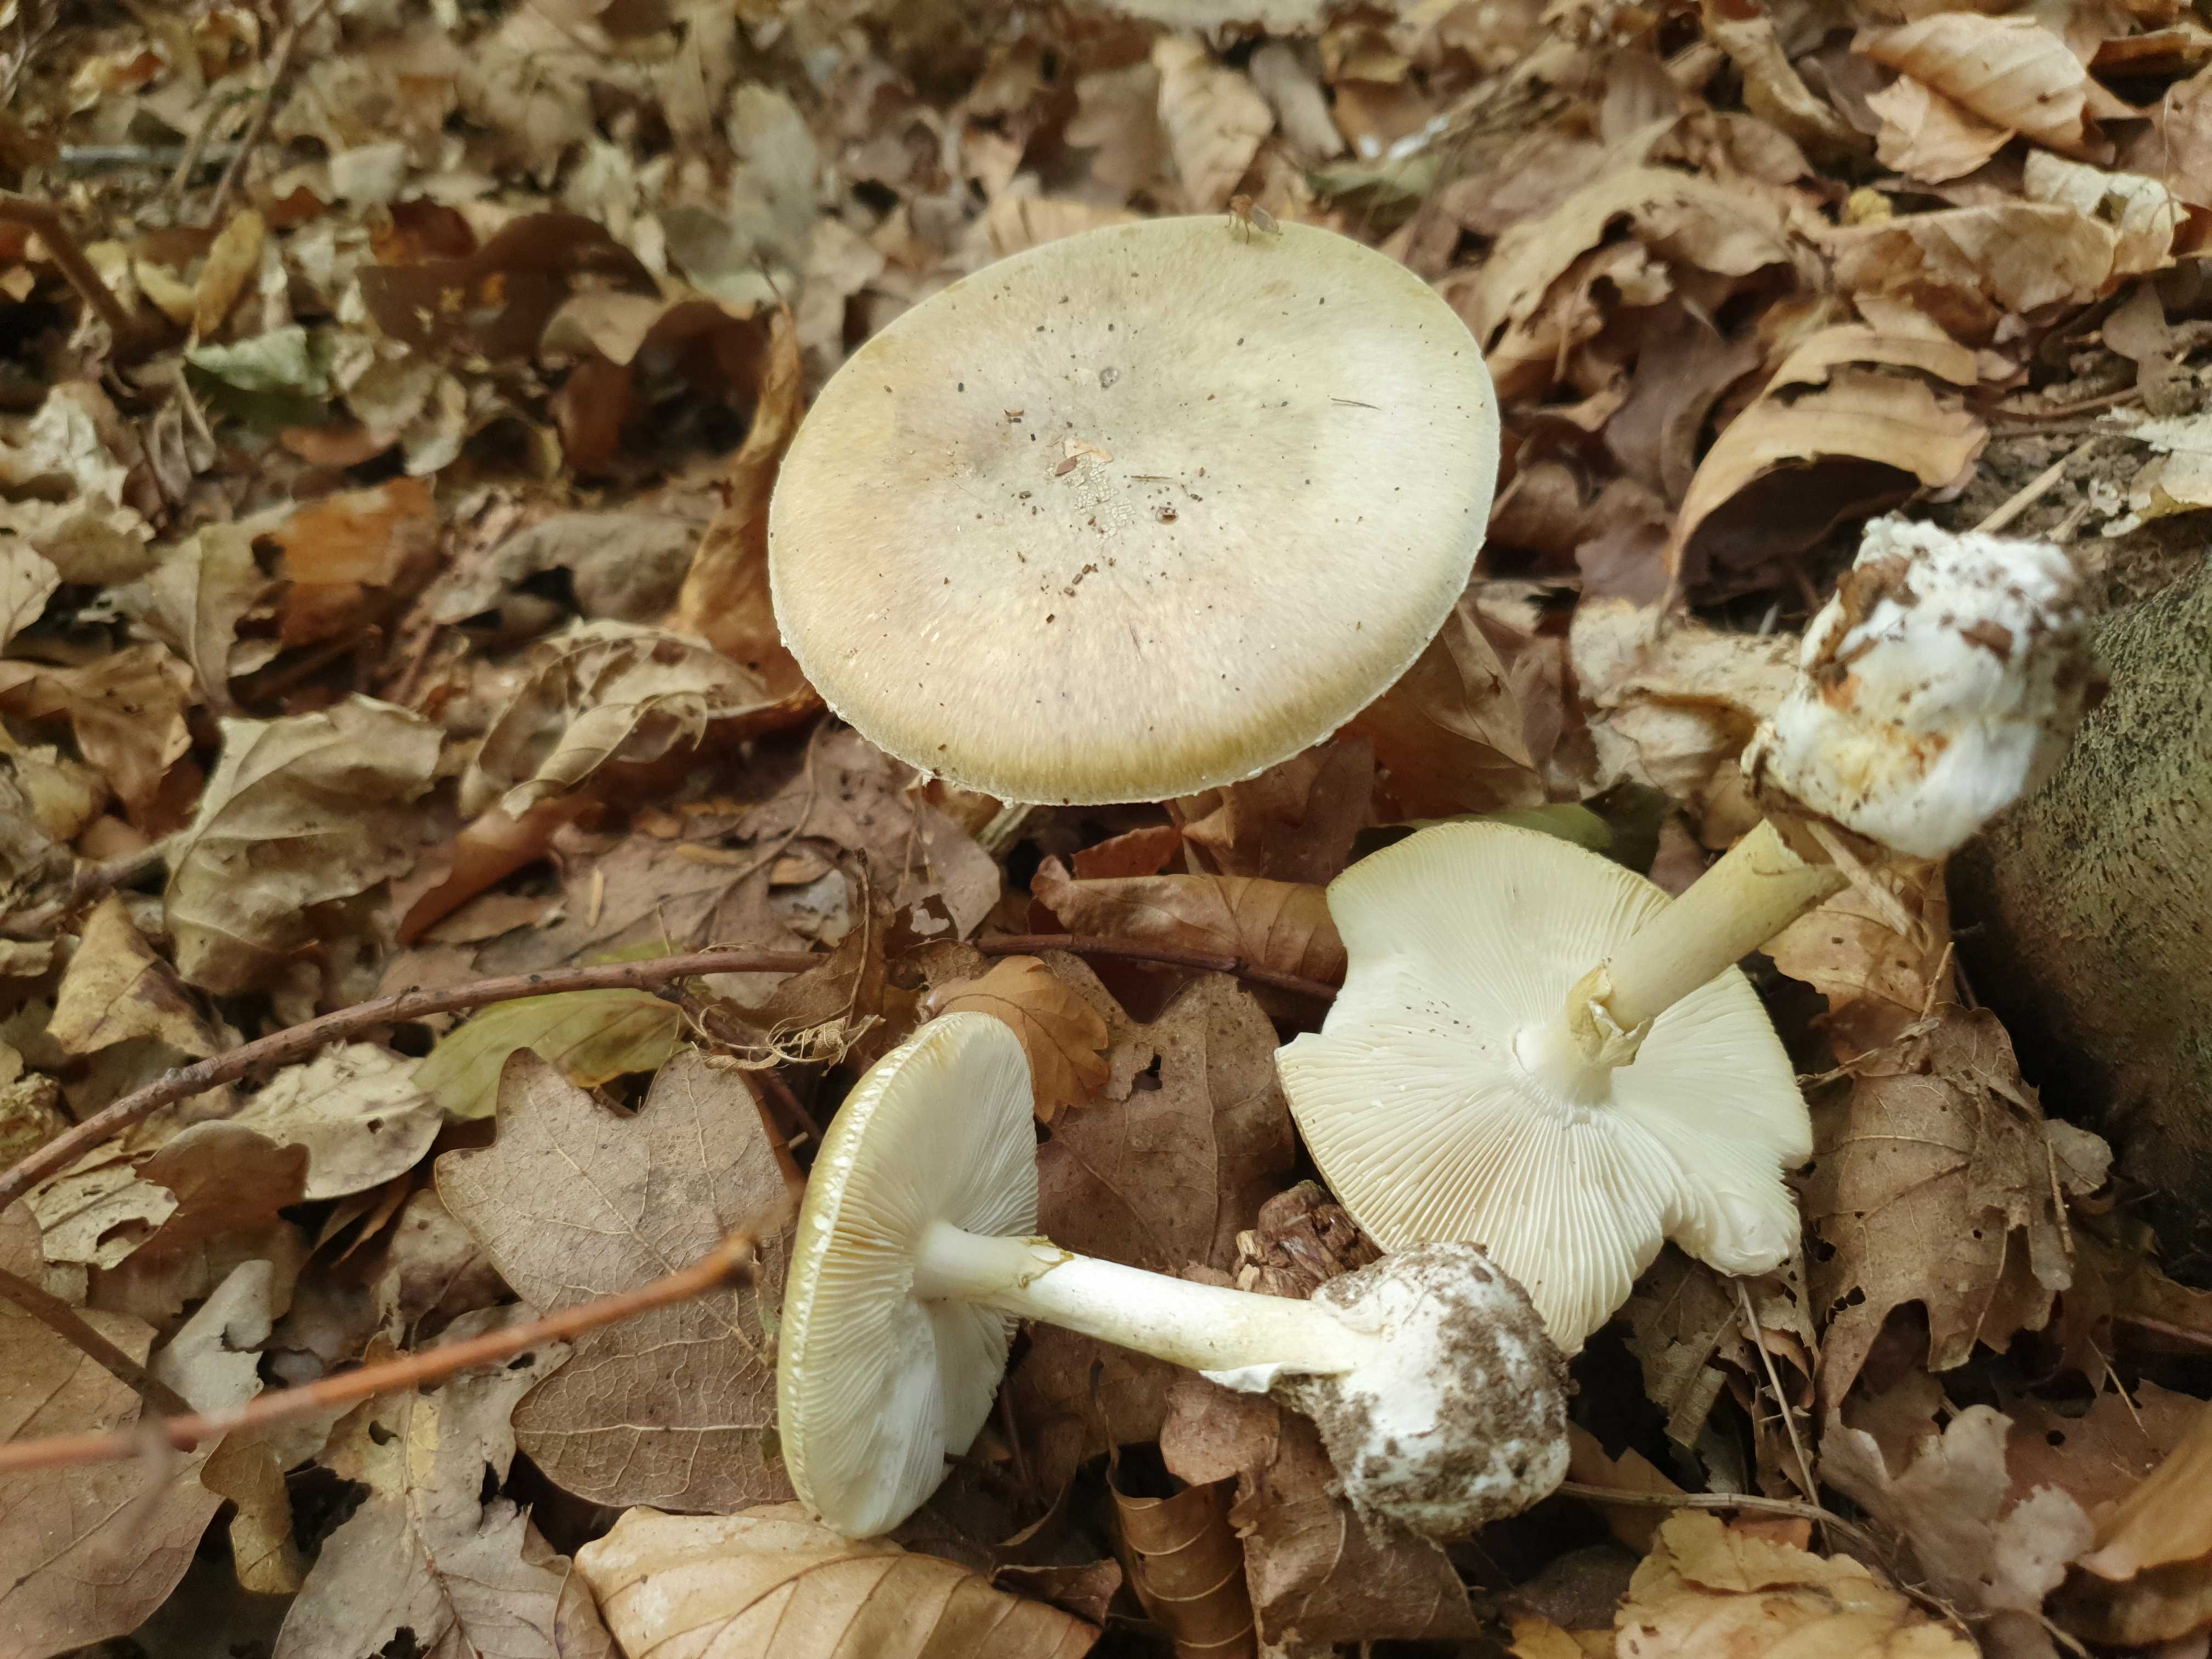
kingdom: Fungi
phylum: Basidiomycota
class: Agaricomycetes
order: Agaricales
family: Amanitaceae
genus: Amanita
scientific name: Amanita phalloides
